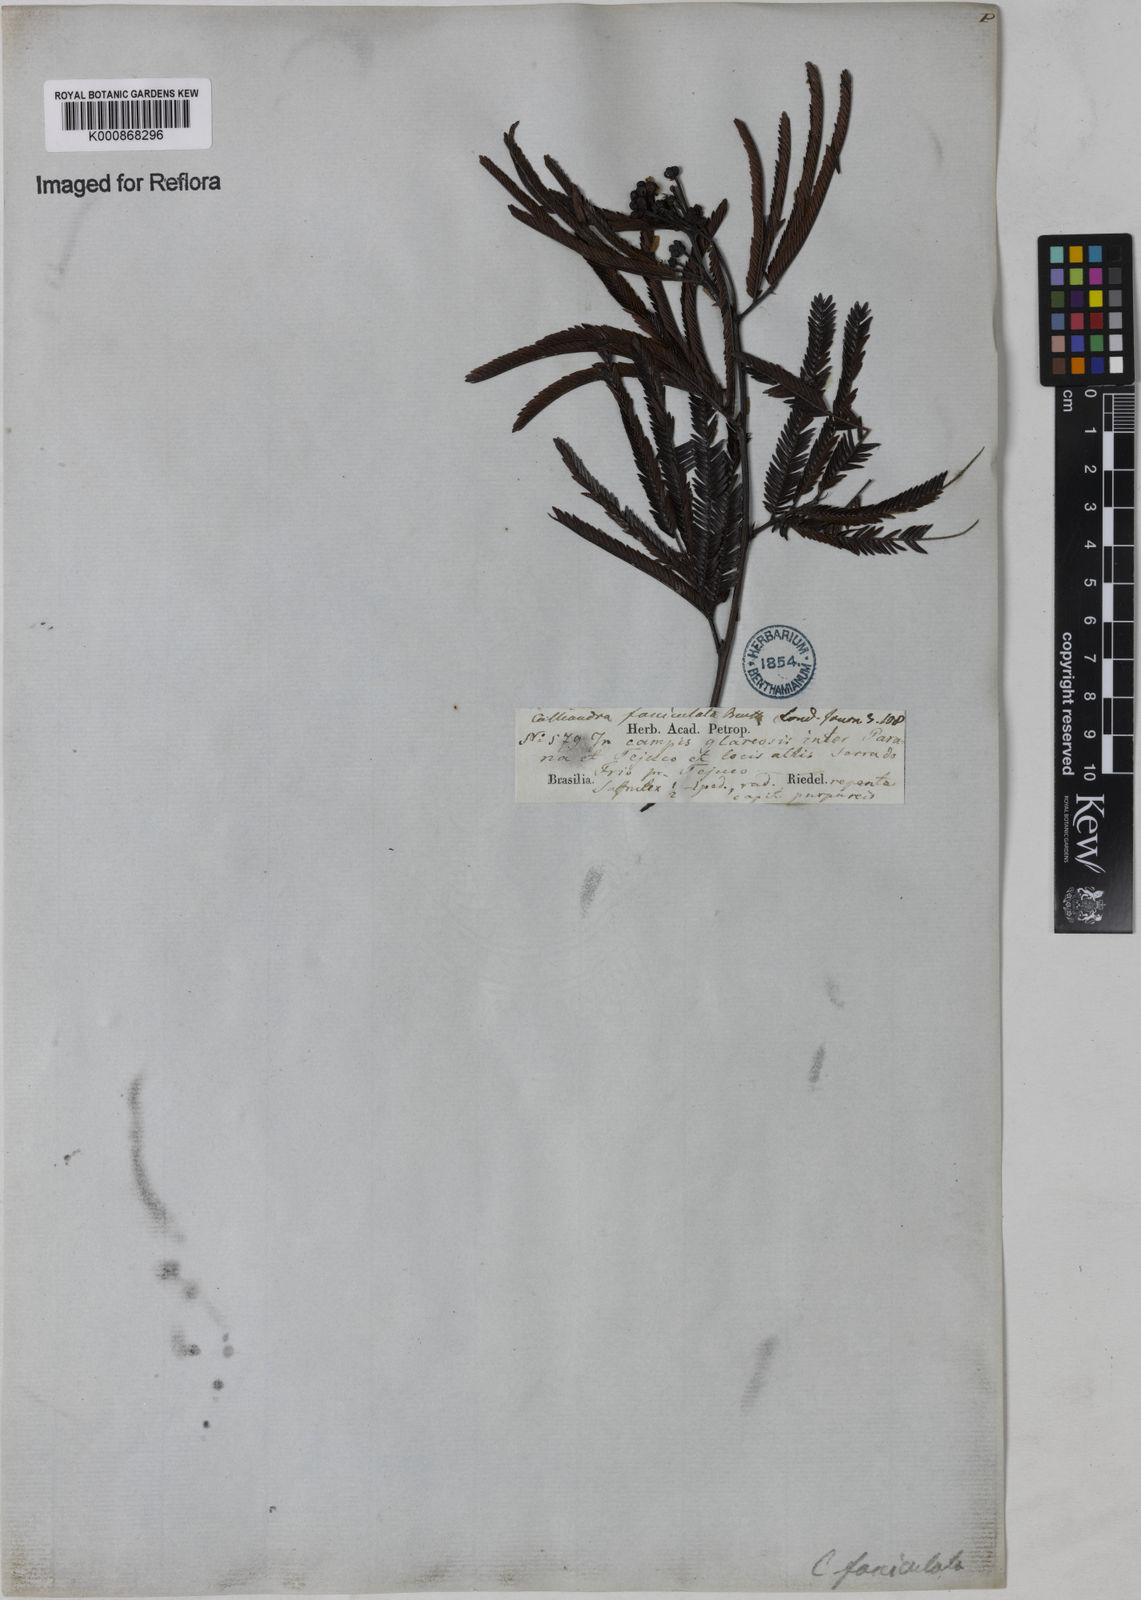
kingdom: Plantae
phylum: Tracheophyta
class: Magnoliopsida
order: Fabales
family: Fabaceae
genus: Calliandra
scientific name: Calliandra fasciculata
